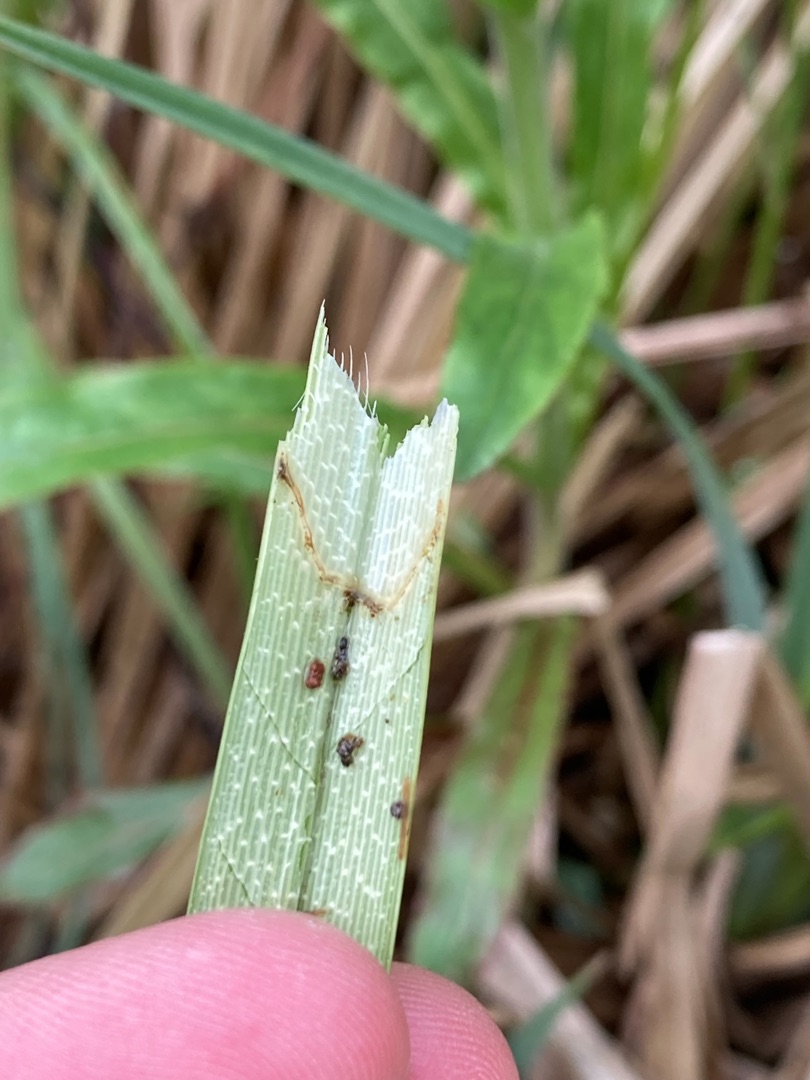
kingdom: Plantae
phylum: Tracheophyta
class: Liliopsida
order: Poales
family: Cyperaceae
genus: Carex
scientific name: Carex riparia
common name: Tykakset star
